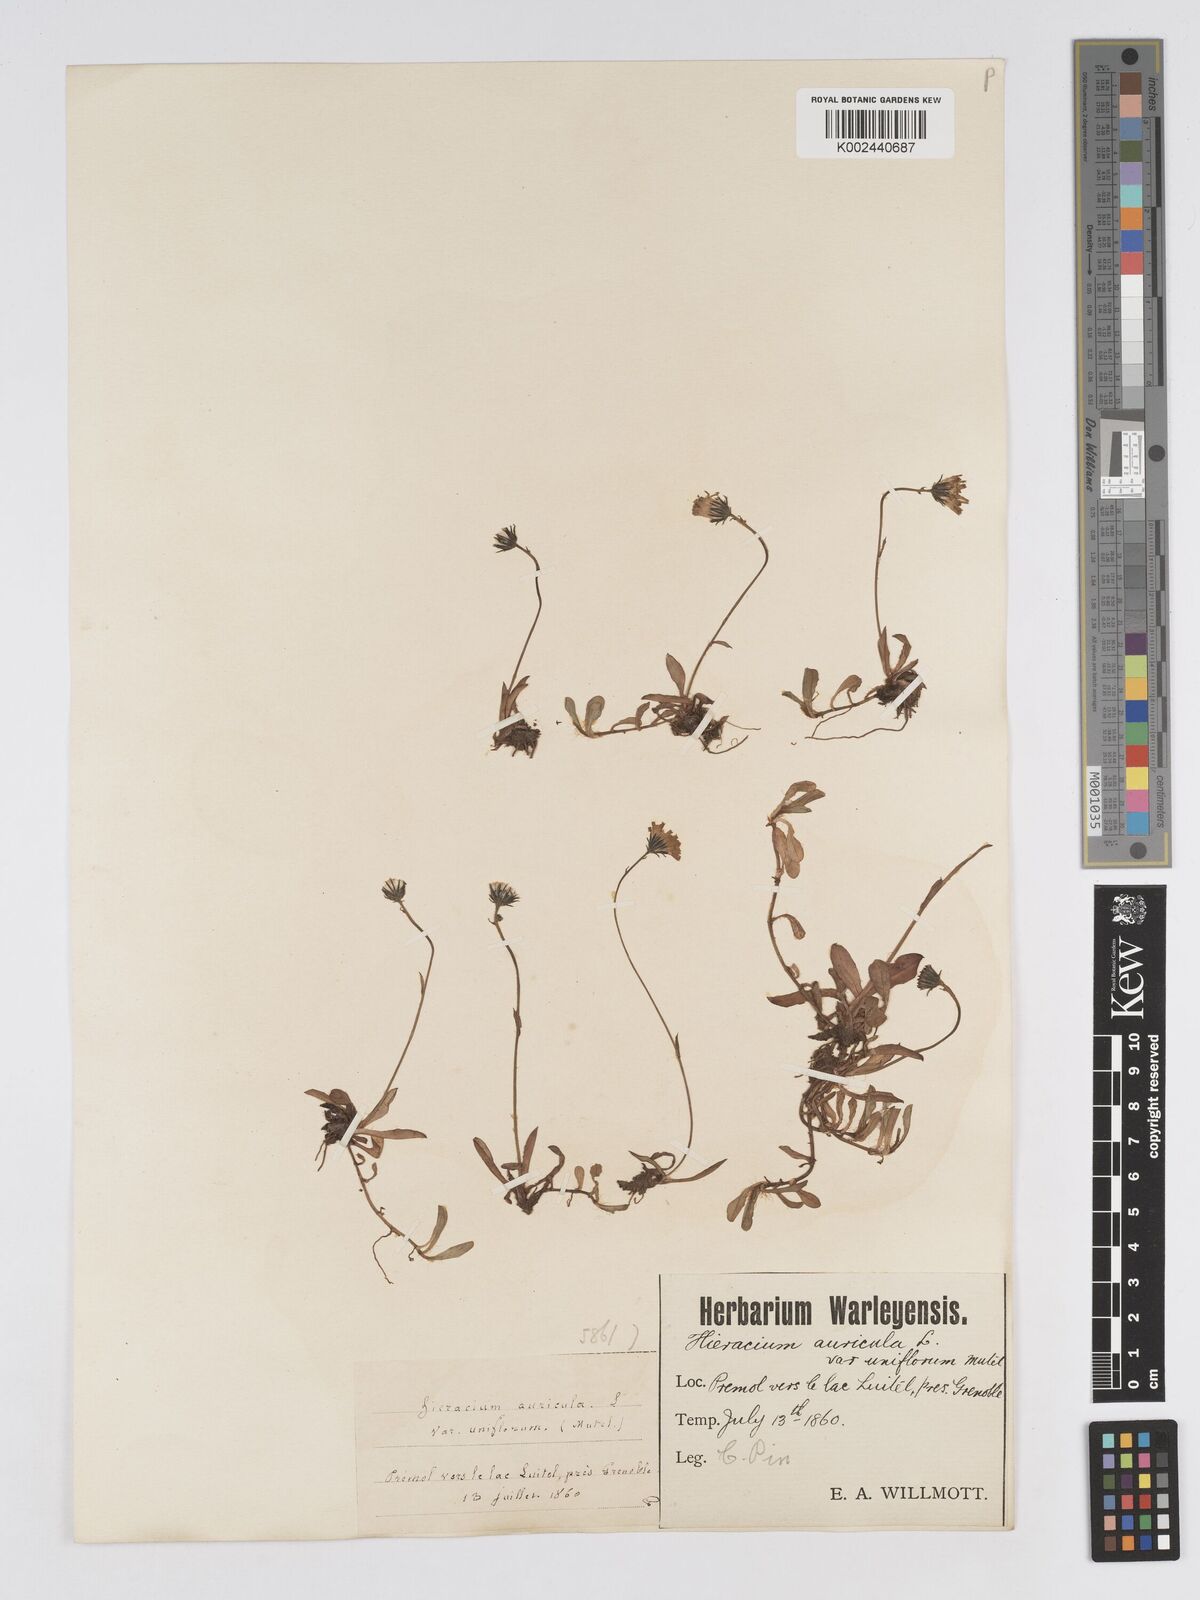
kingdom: Plantae
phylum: Tracheophyta
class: Magnoliopsida
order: Asterales
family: Asteraceae
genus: Pilosella
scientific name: Pilosella floribunda
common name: Glaucous hawkweed
